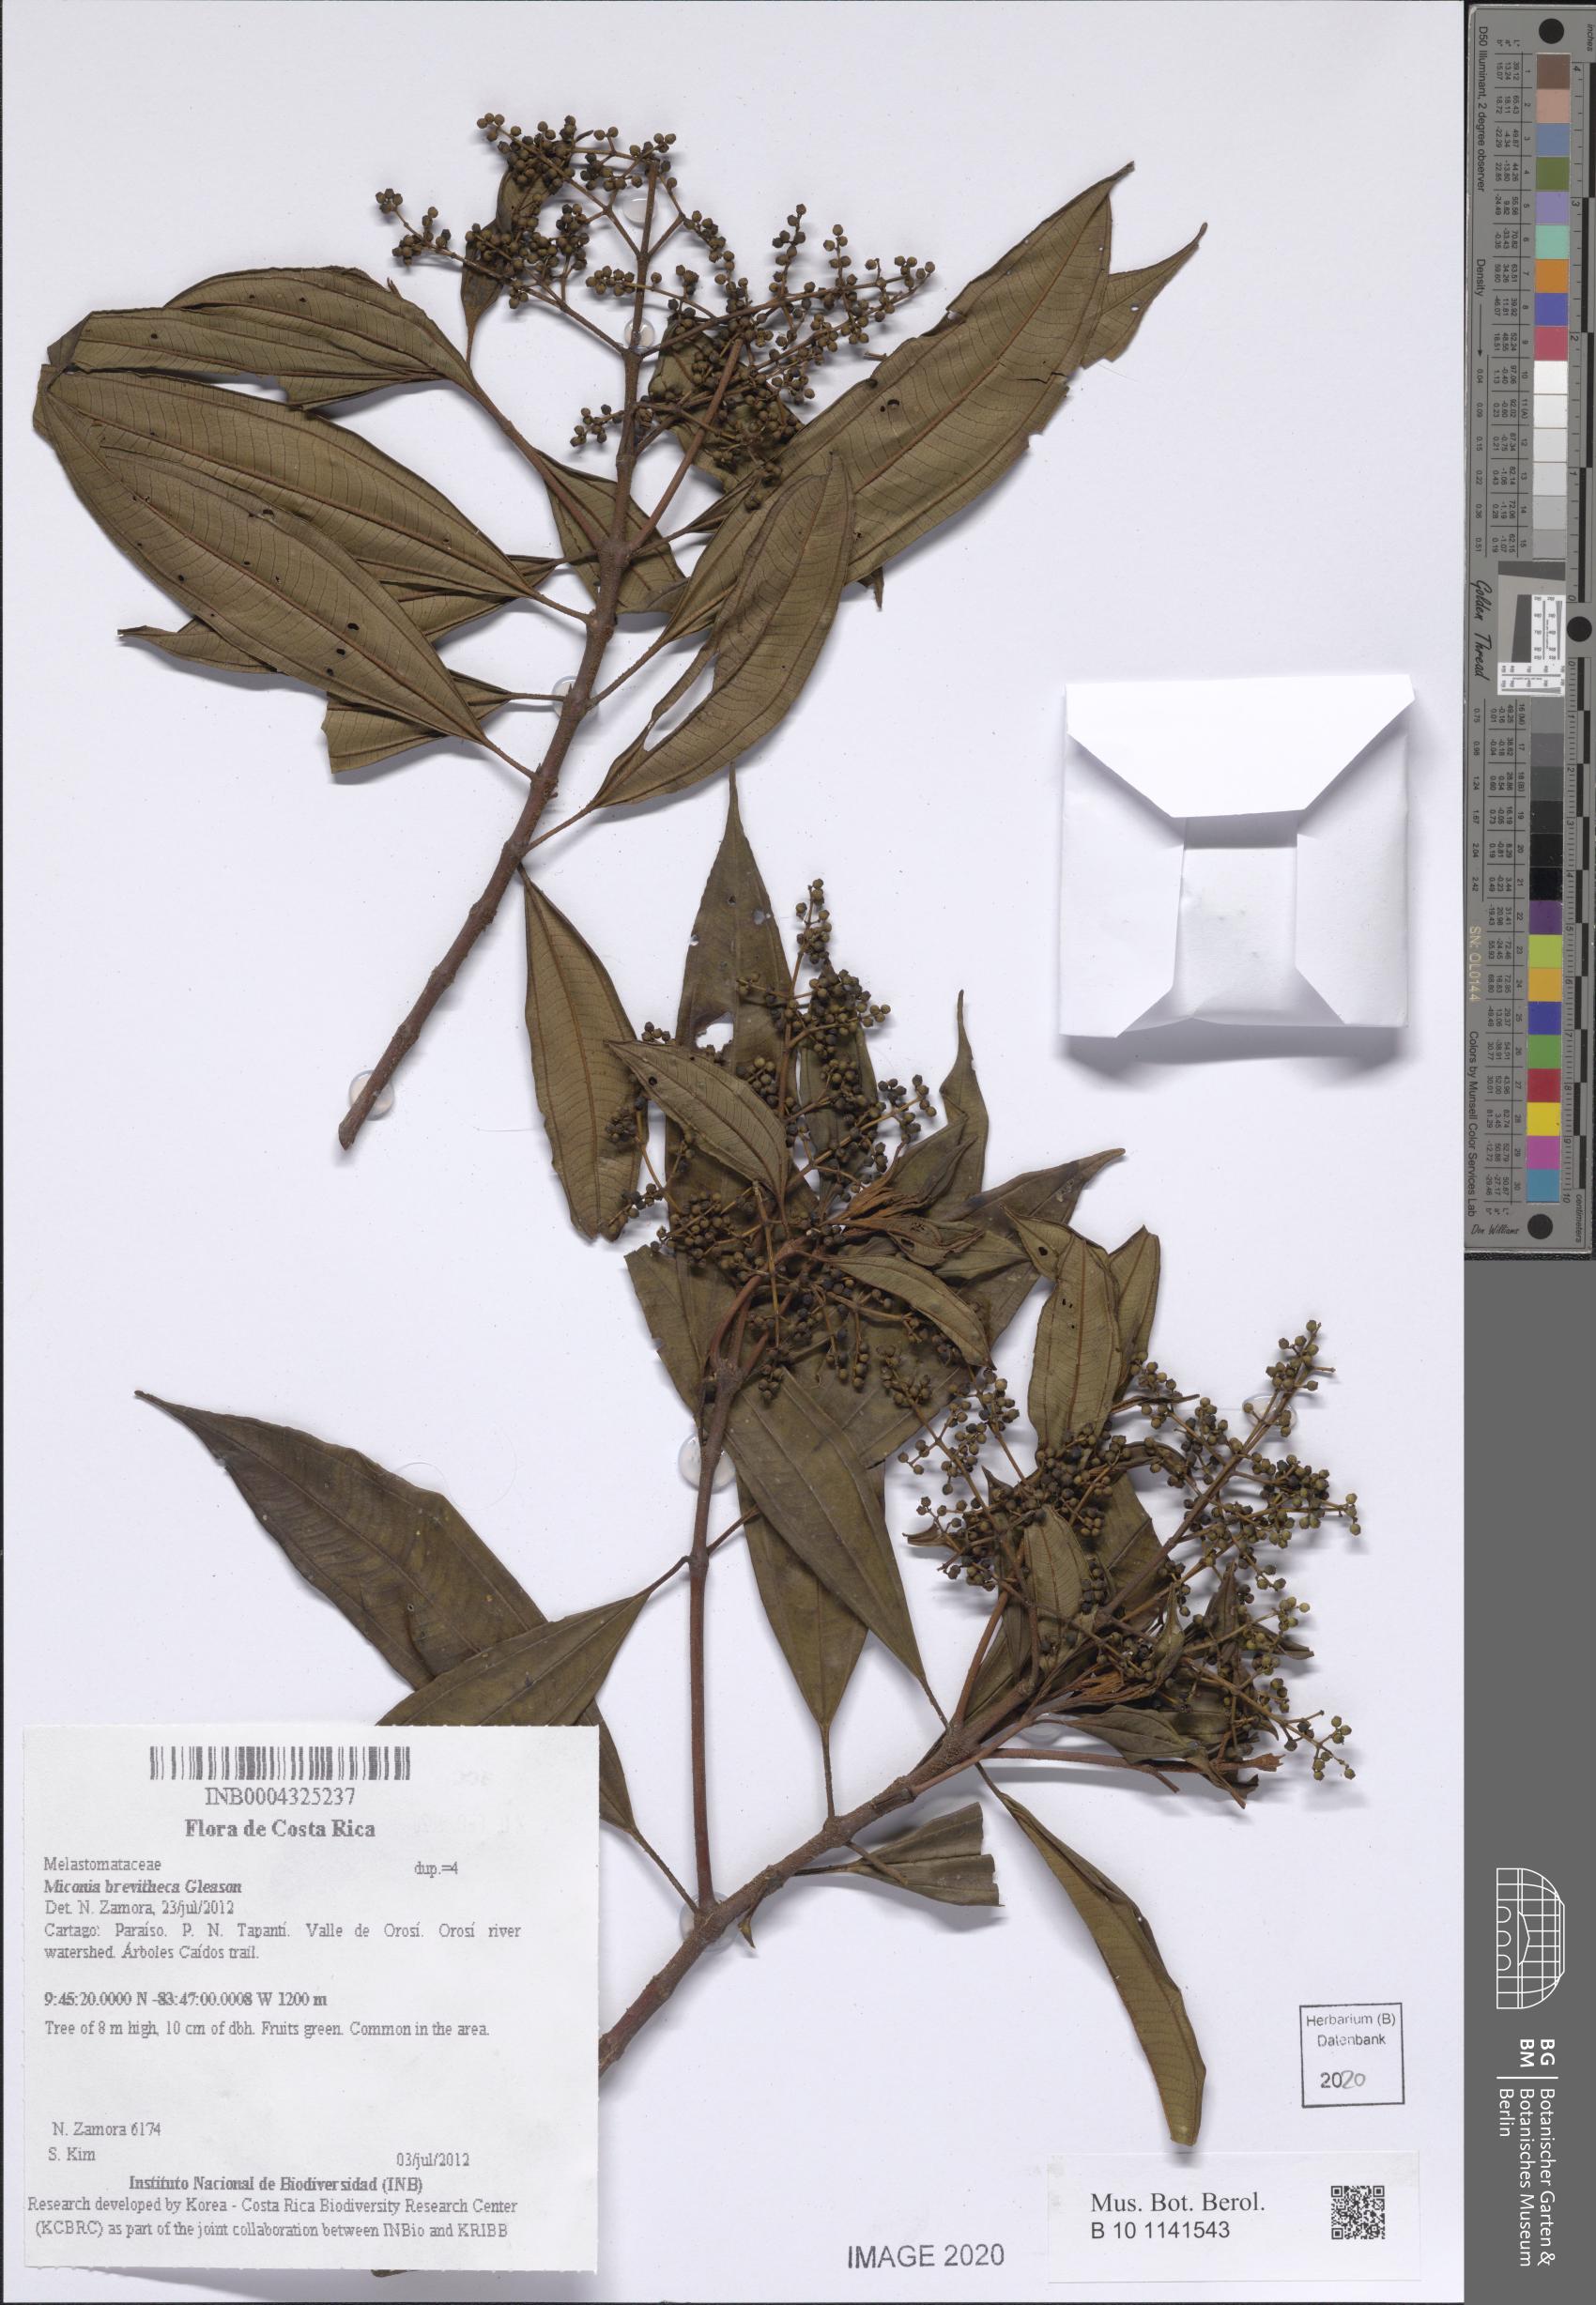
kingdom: Plantae
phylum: Tracheophyta
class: Magnoliopsida
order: Myrtales
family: Melastomataceae
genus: Miconia
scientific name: Miconia brevitheca
